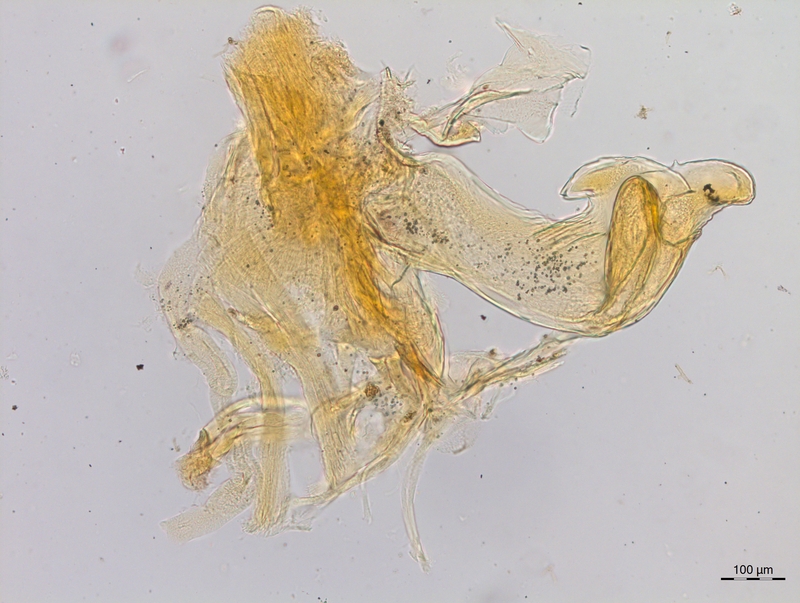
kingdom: Animalia
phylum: Arthropoda
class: Diplopoda
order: Chordeumatida
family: Craspedosomatidae
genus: Craspedosoma
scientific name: Craspedosoma rawlinsii
